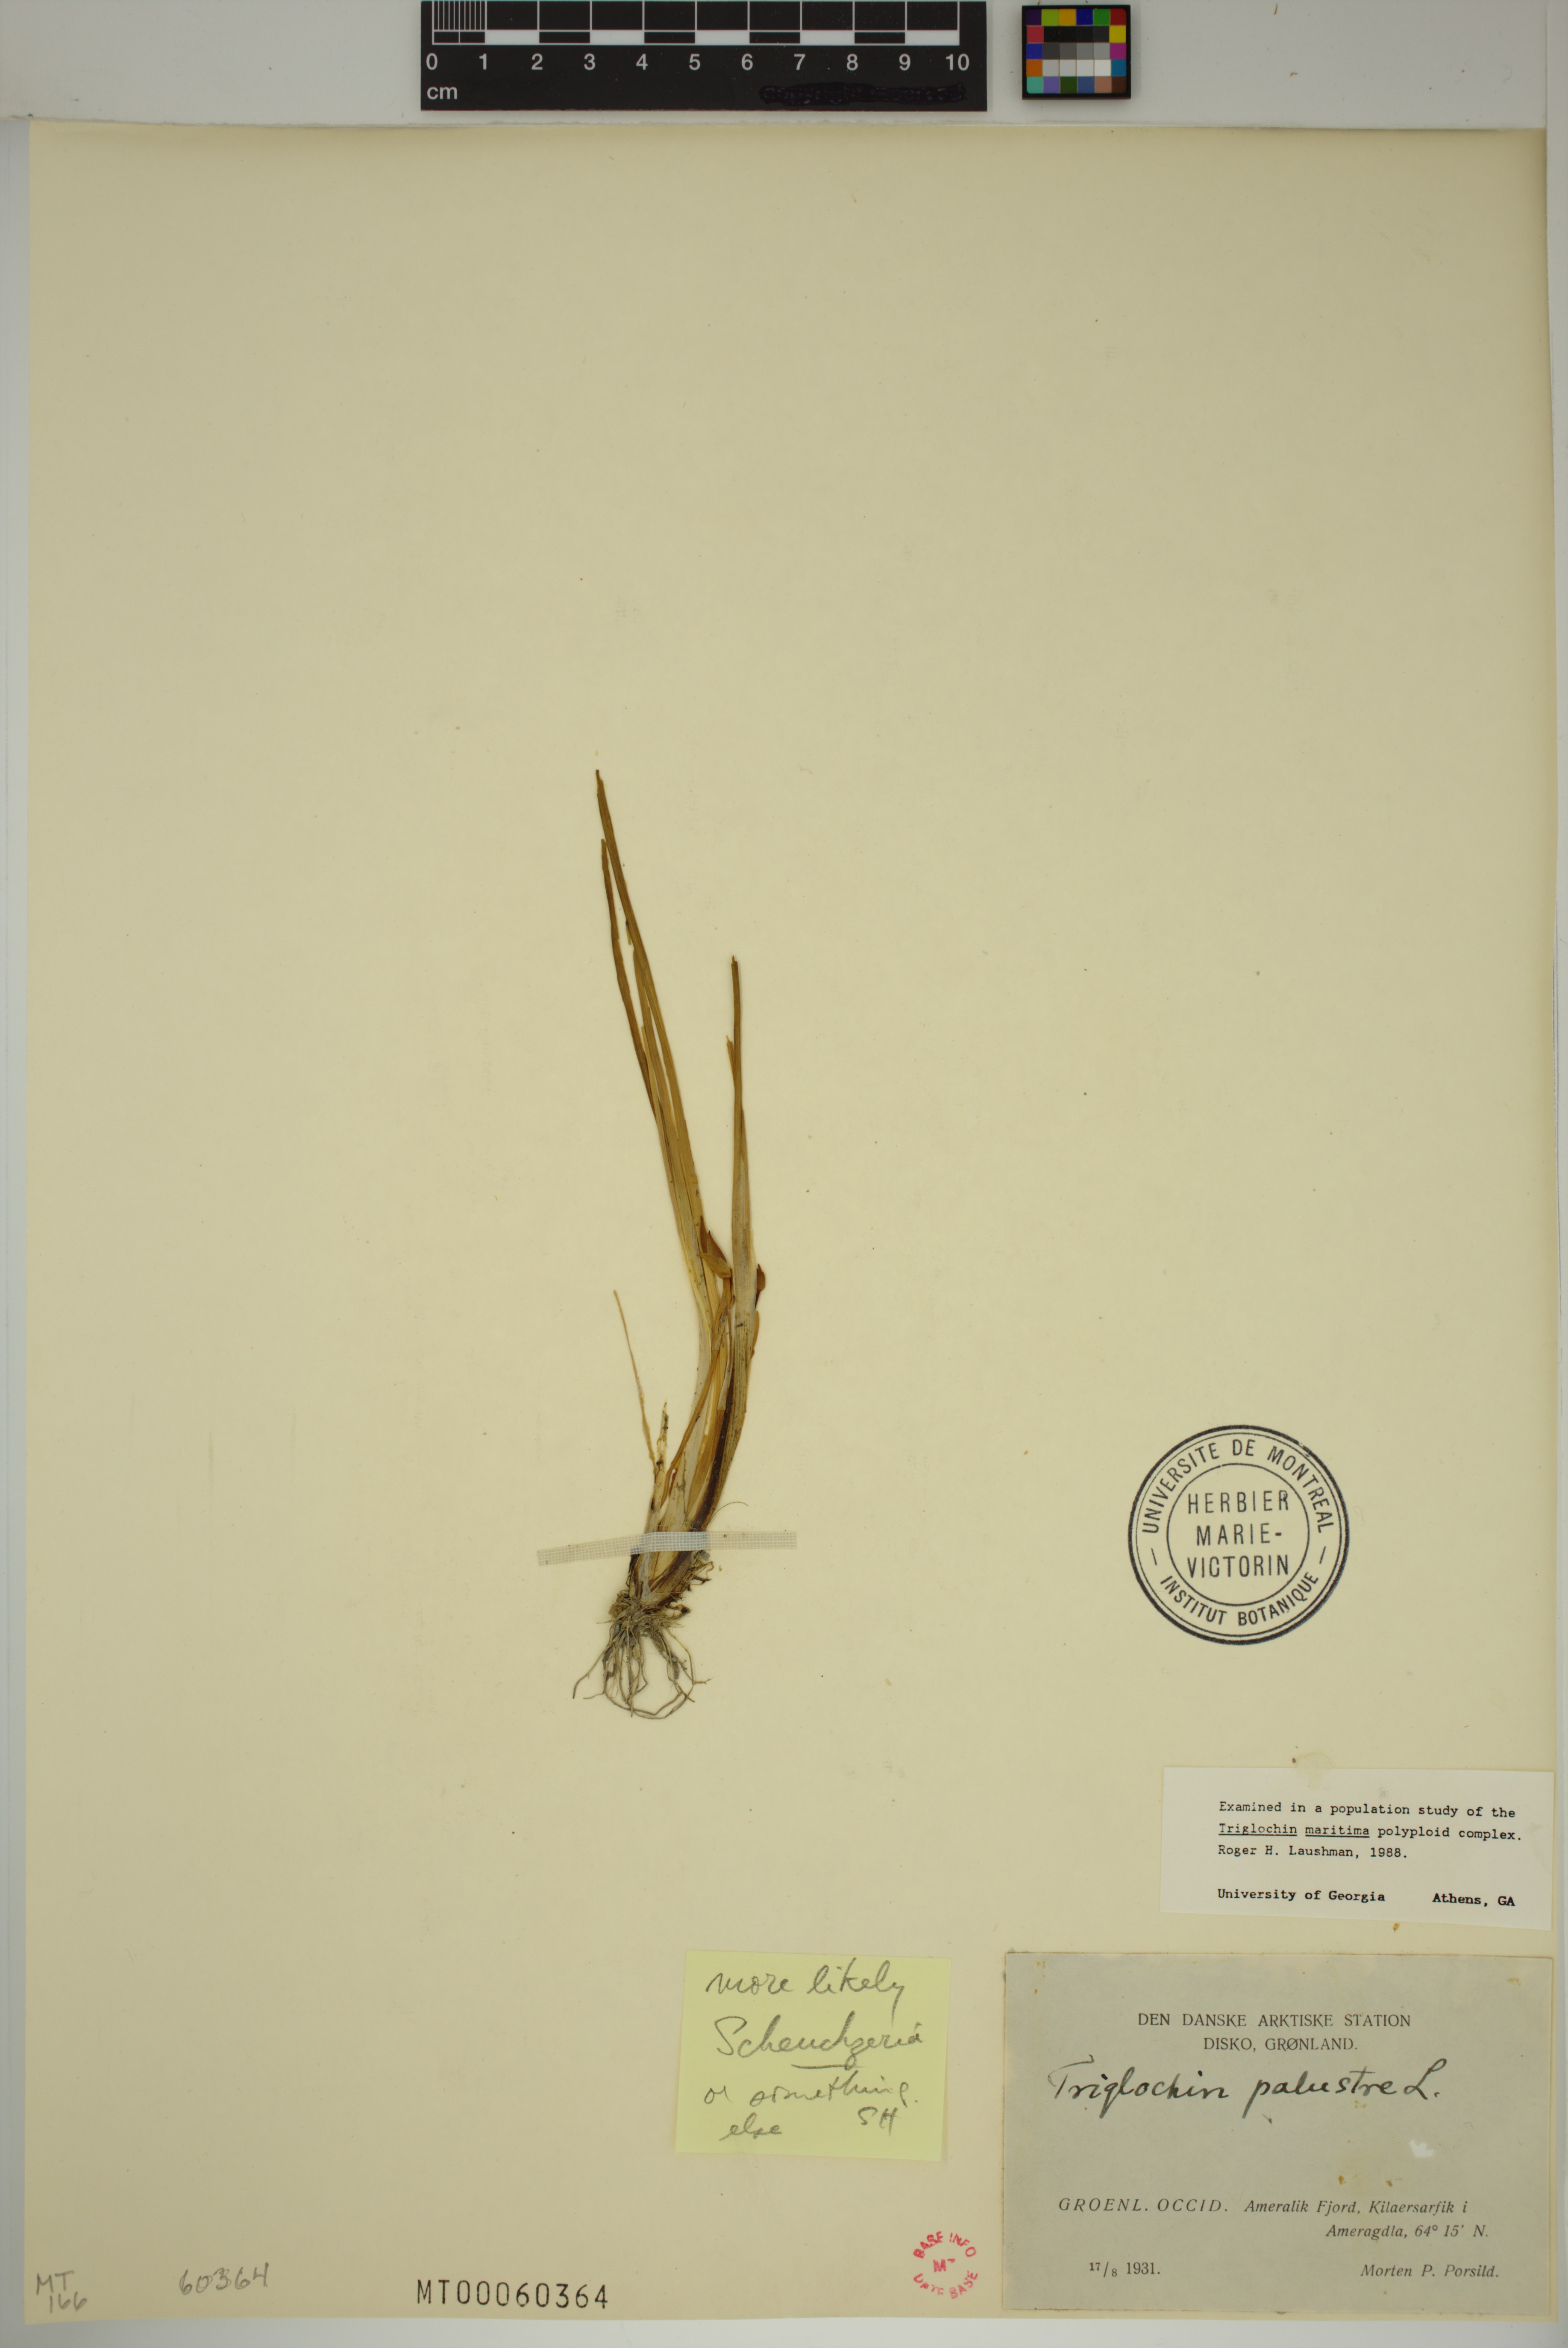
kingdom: Plantae
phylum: Tracheophyta
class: Liliopsida
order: Alismatales
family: Scheuchzeriaceae
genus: Scheuchzeria
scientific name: Scheuchzeria palustris
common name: Rannoch-rush
